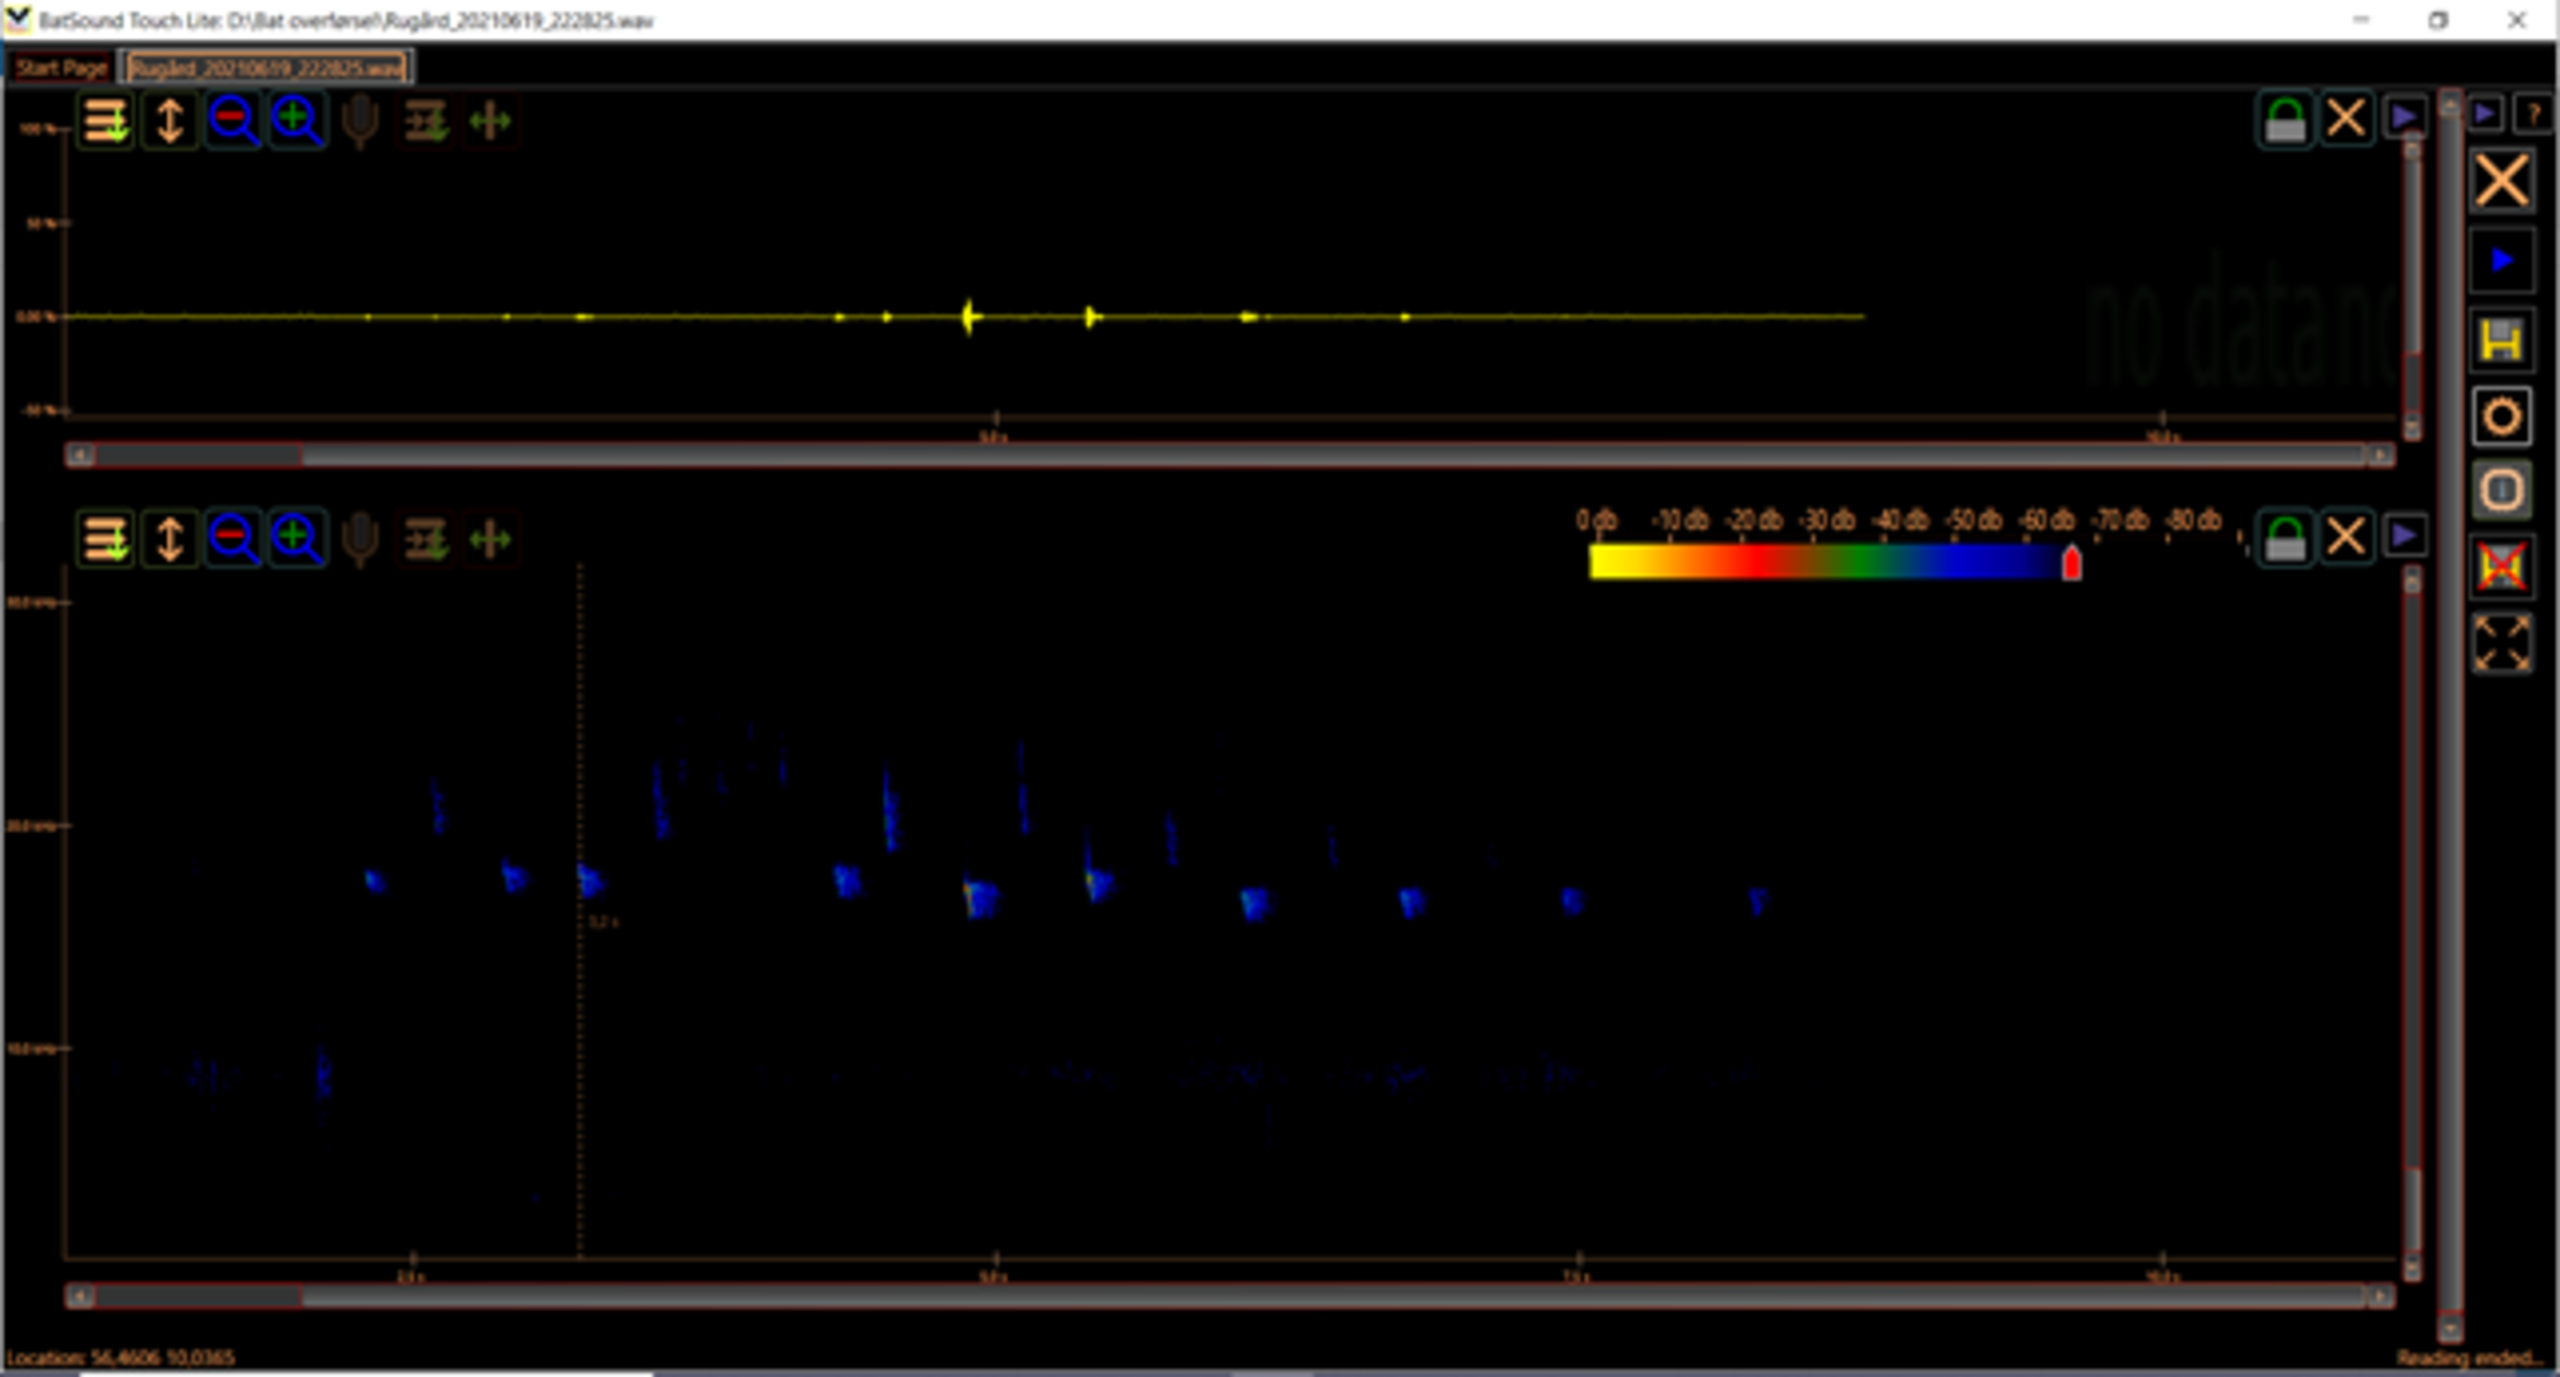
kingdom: Animalia
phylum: Chordata
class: Mammalia
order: Chiroptera
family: Vespertilionidae
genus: Nyctalus
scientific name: Nyctalus noctula
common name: Brunflagermus
